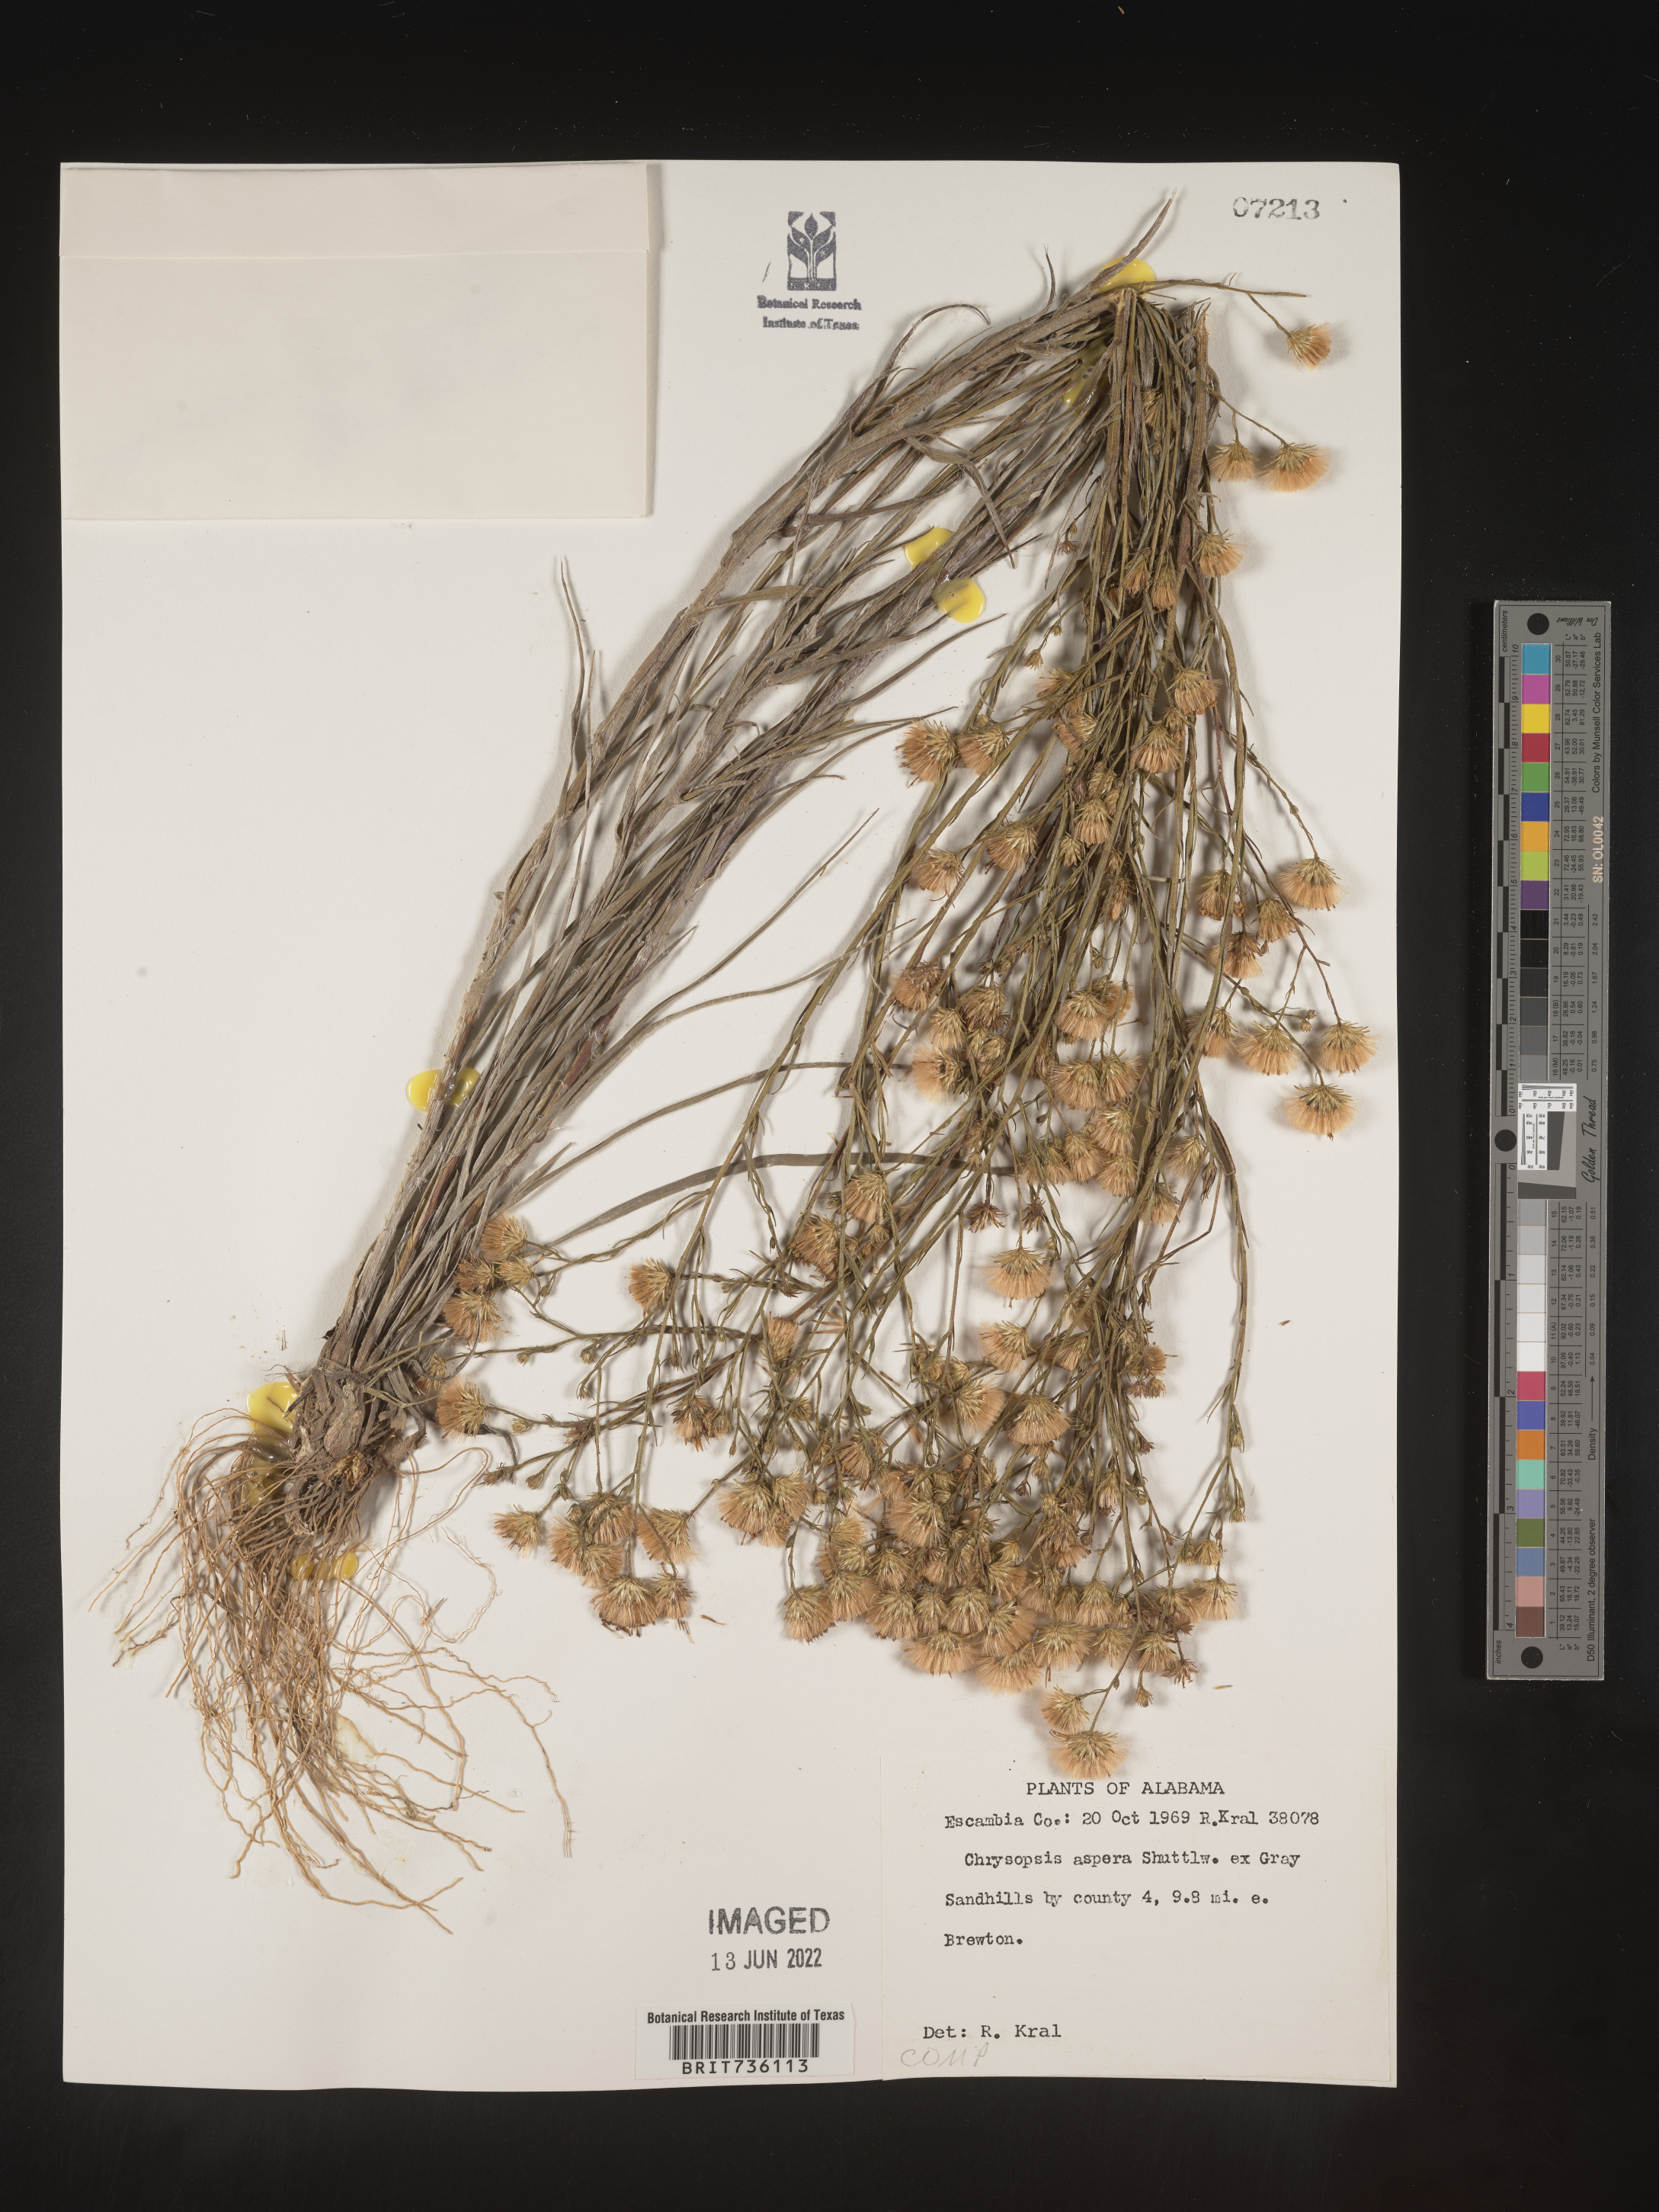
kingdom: Plantae
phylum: Tracheophyta
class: Magnoliopsida
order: Asterales
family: Asteraceae
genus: Pityopsis
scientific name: Pityopsis aspera
